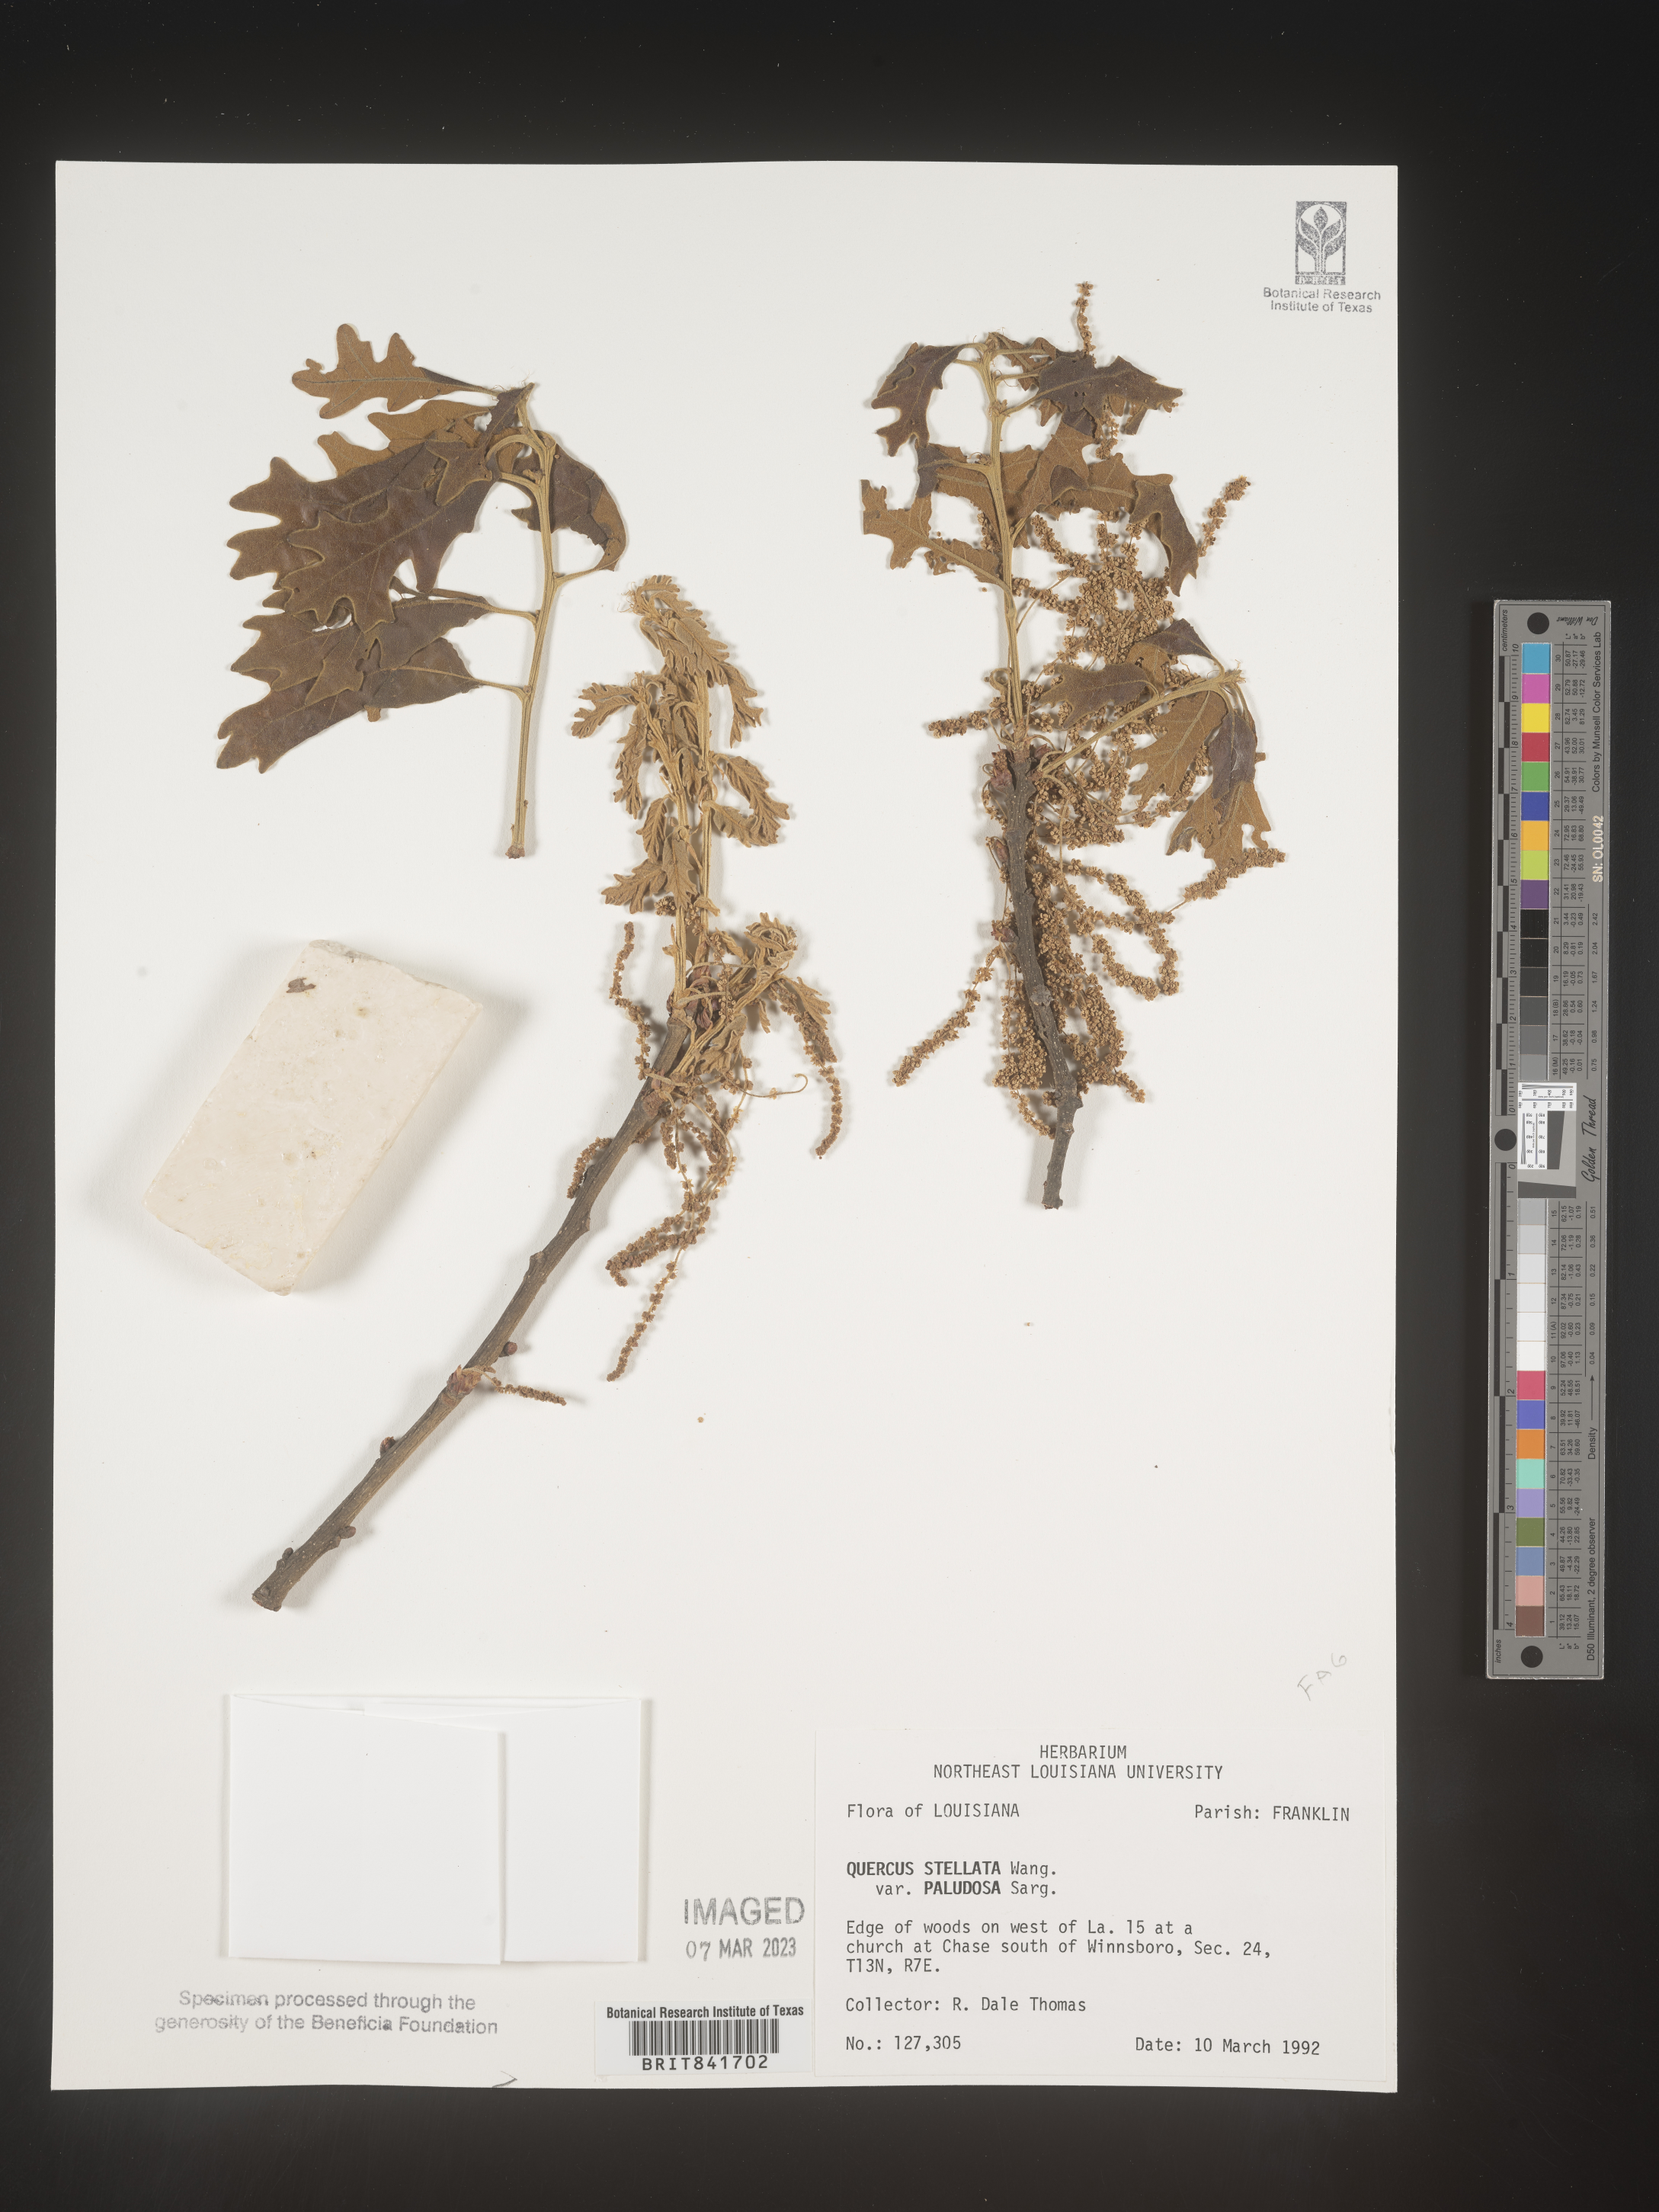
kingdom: Plantae
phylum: Tracheophyta
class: Magnoliopsida
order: Fagales
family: Fagaceae
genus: Quercus
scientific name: Quercus stellata
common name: Post oak
